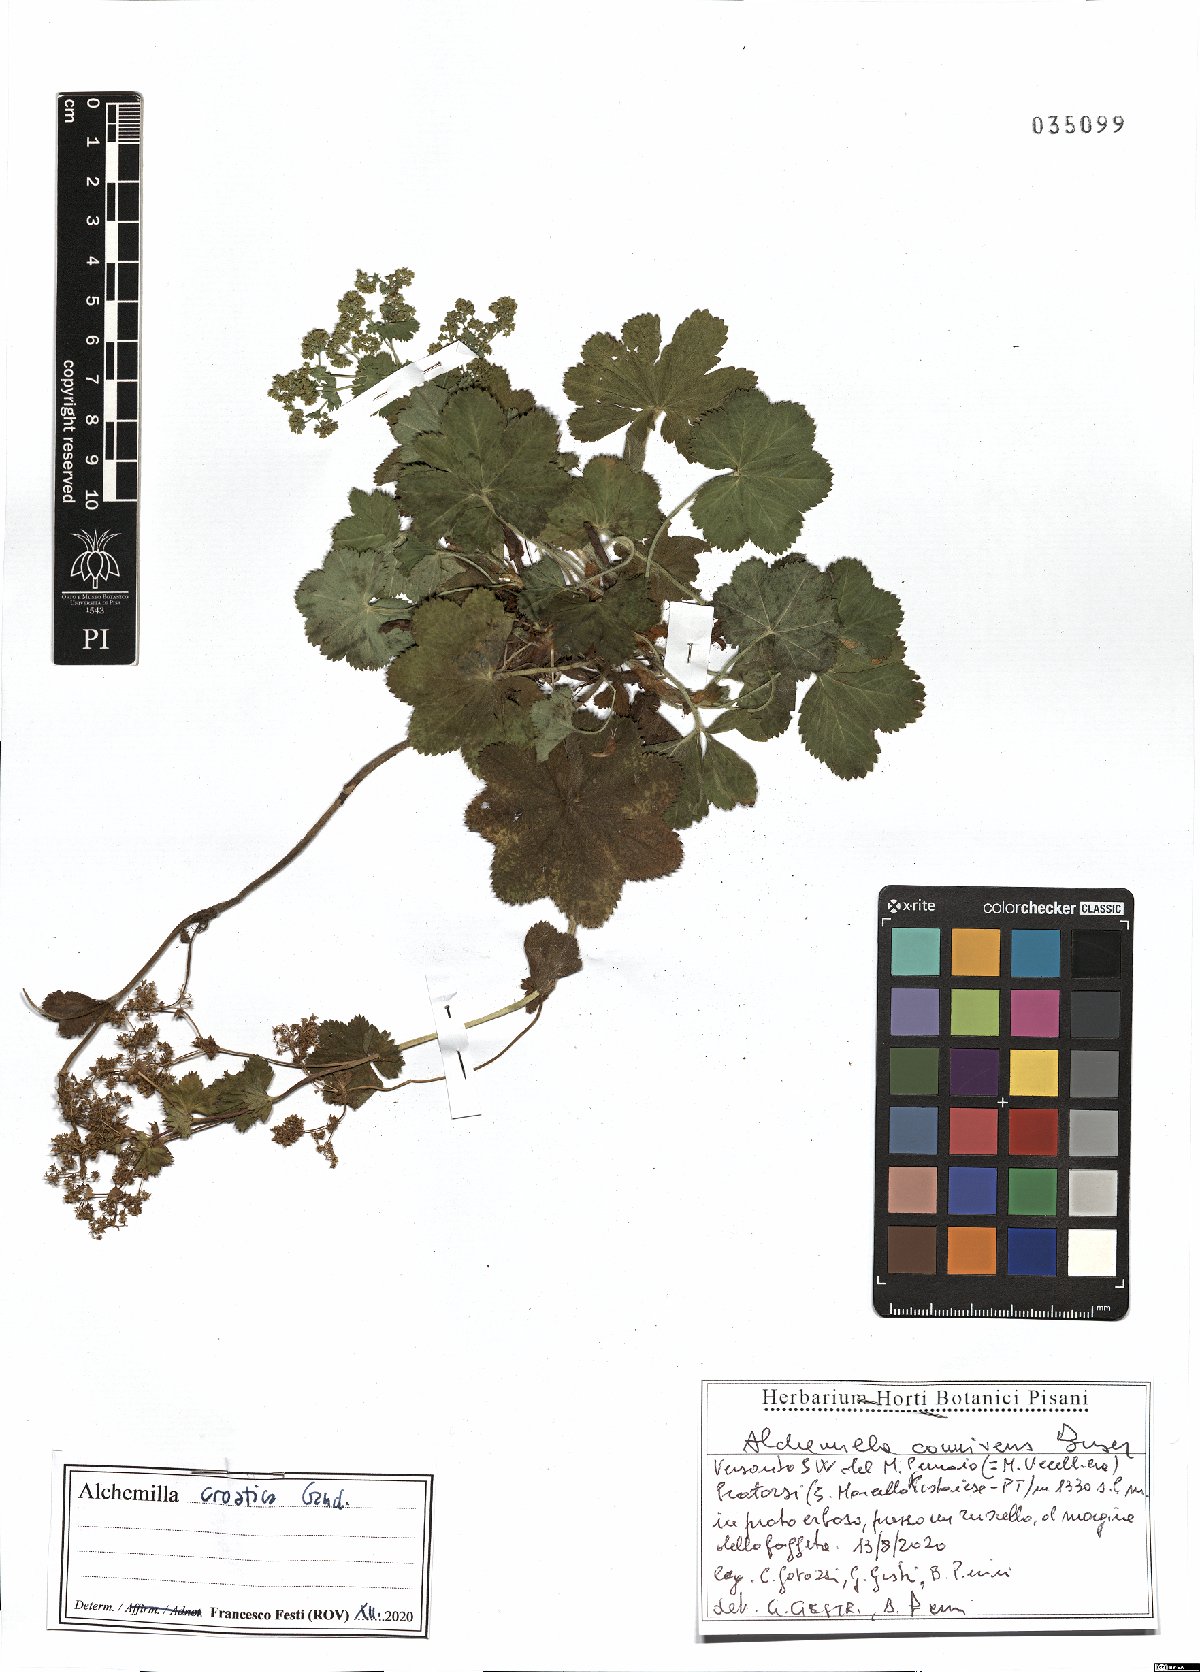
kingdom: Plantae
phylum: Tracheophyta
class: Magnoliopsida
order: Rosales
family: Rosaceae
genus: Alchemilla
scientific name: Alchemilla croatica
